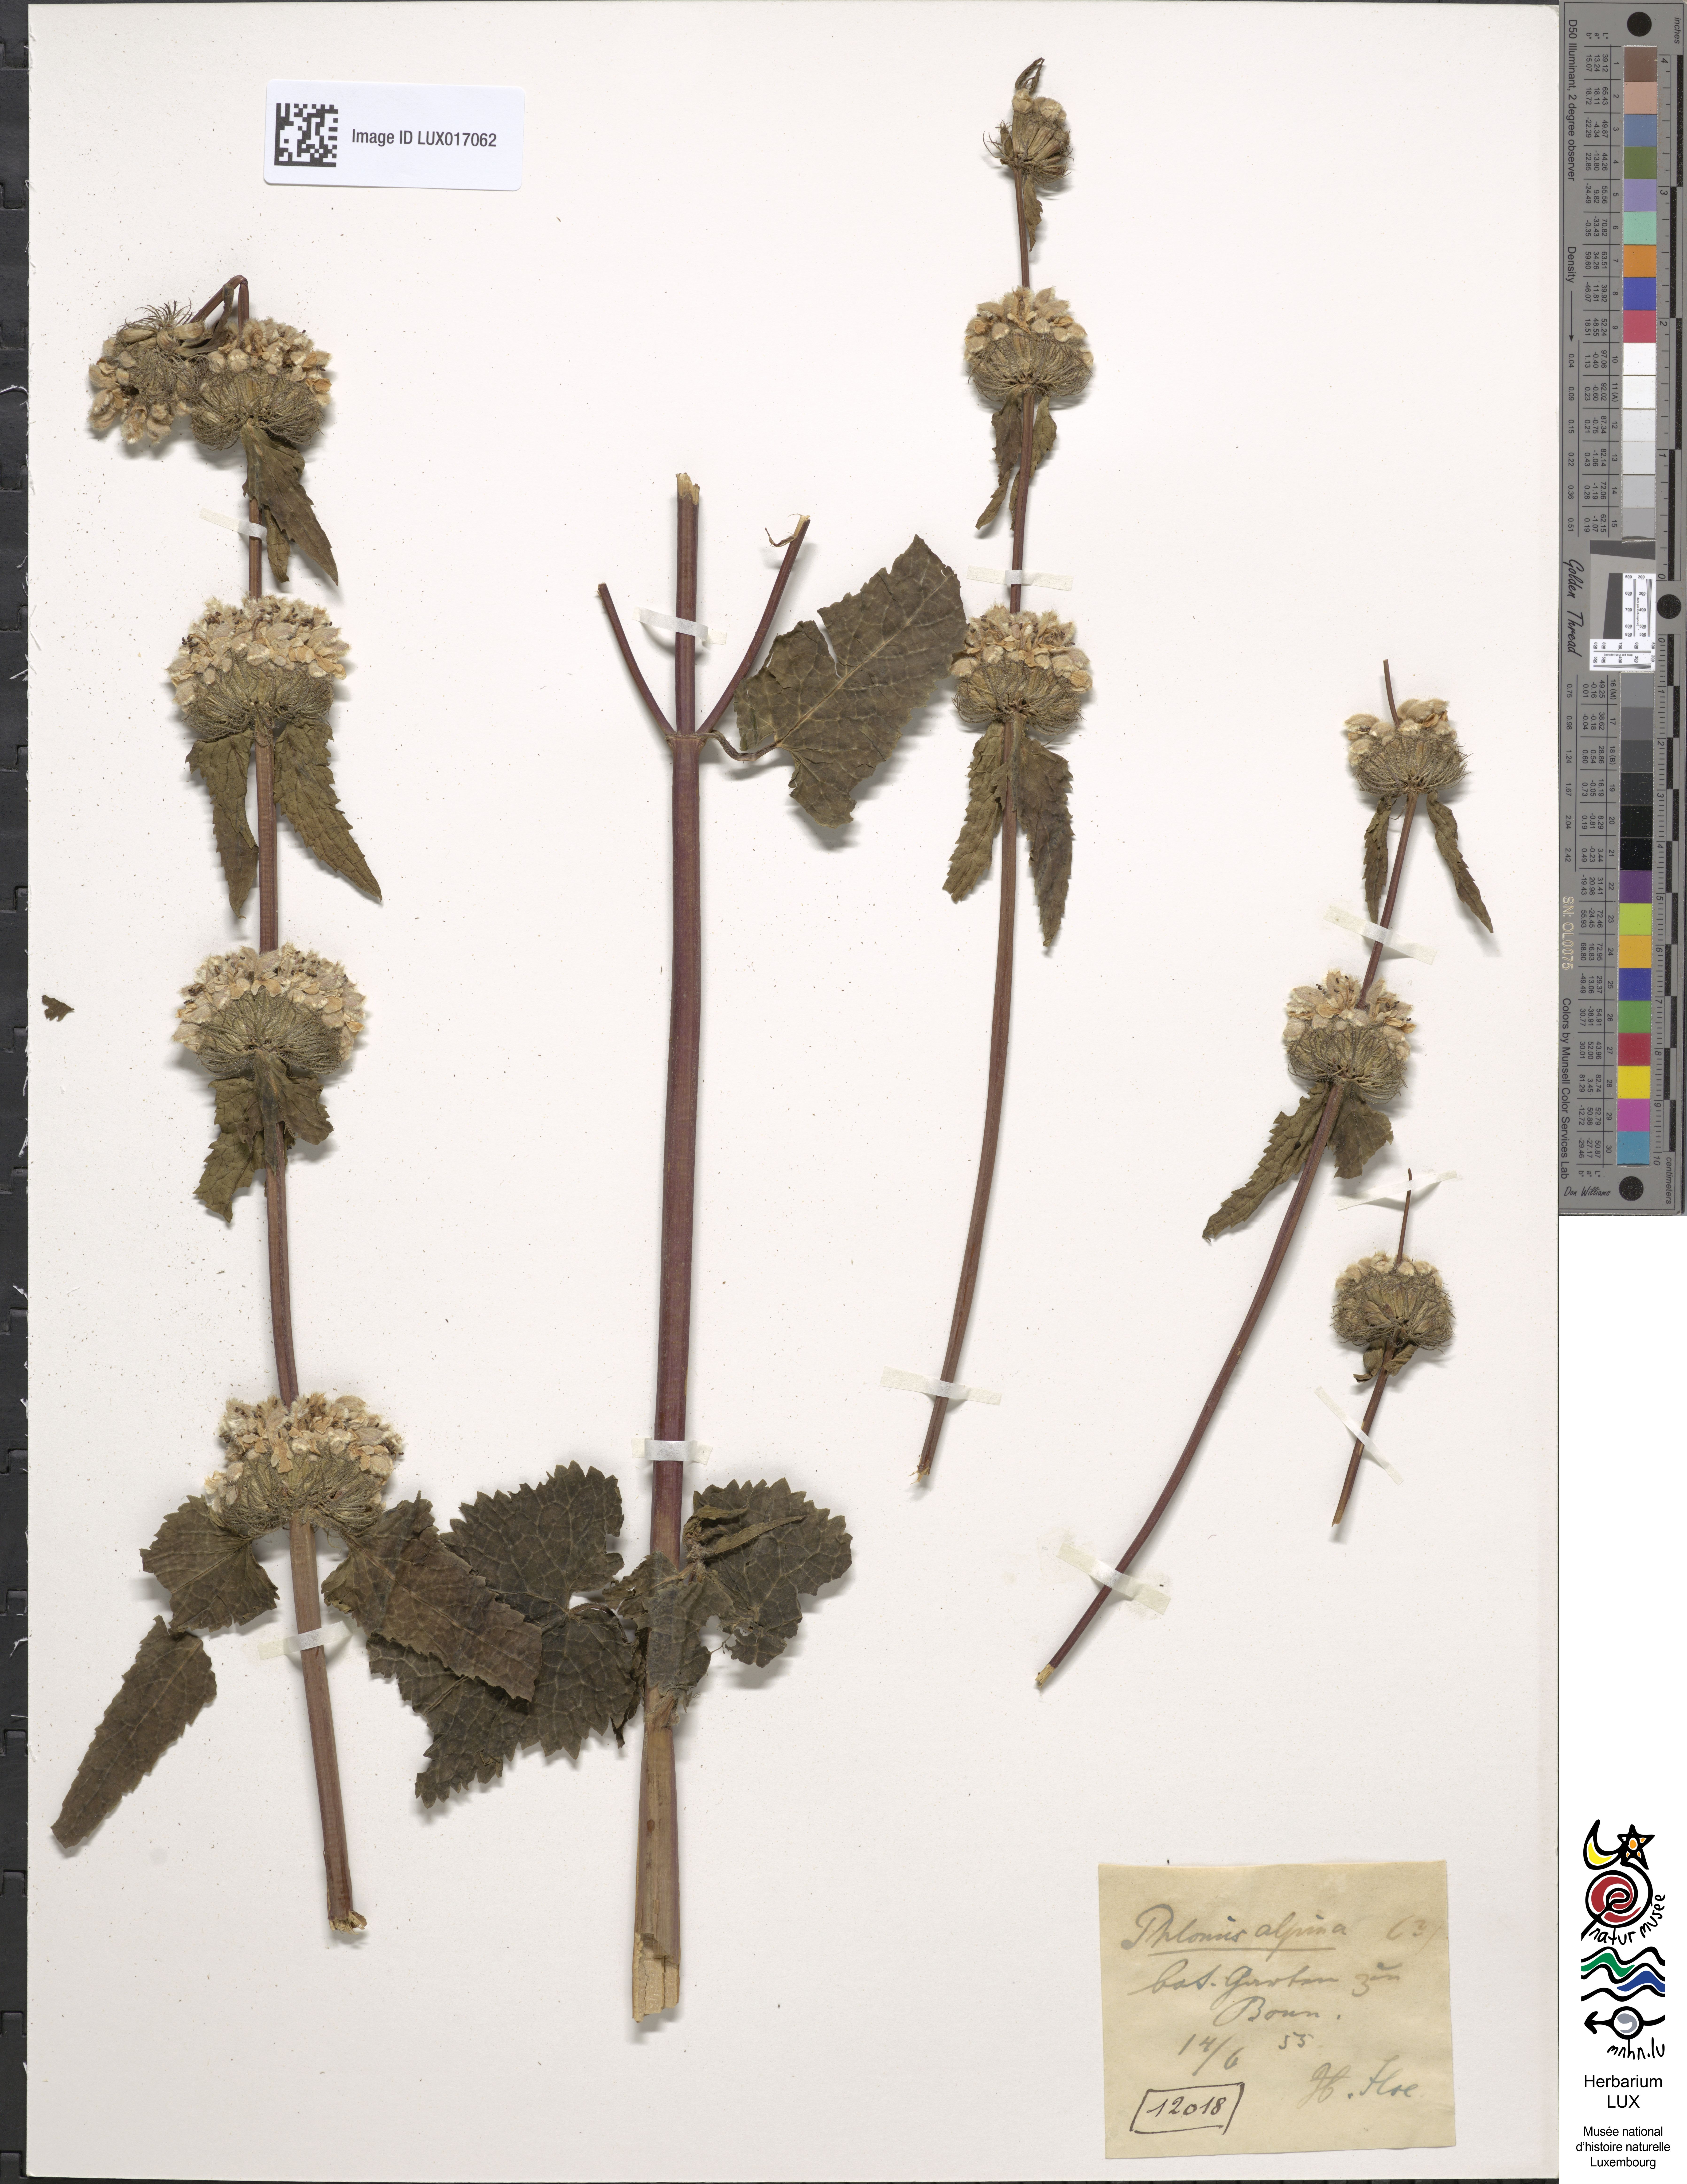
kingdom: Plantae
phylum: Tracheophyta
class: Magnoliopsida
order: Lamiales
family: Lamiaceae
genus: Phlomoides
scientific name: Phlomoides alpina
